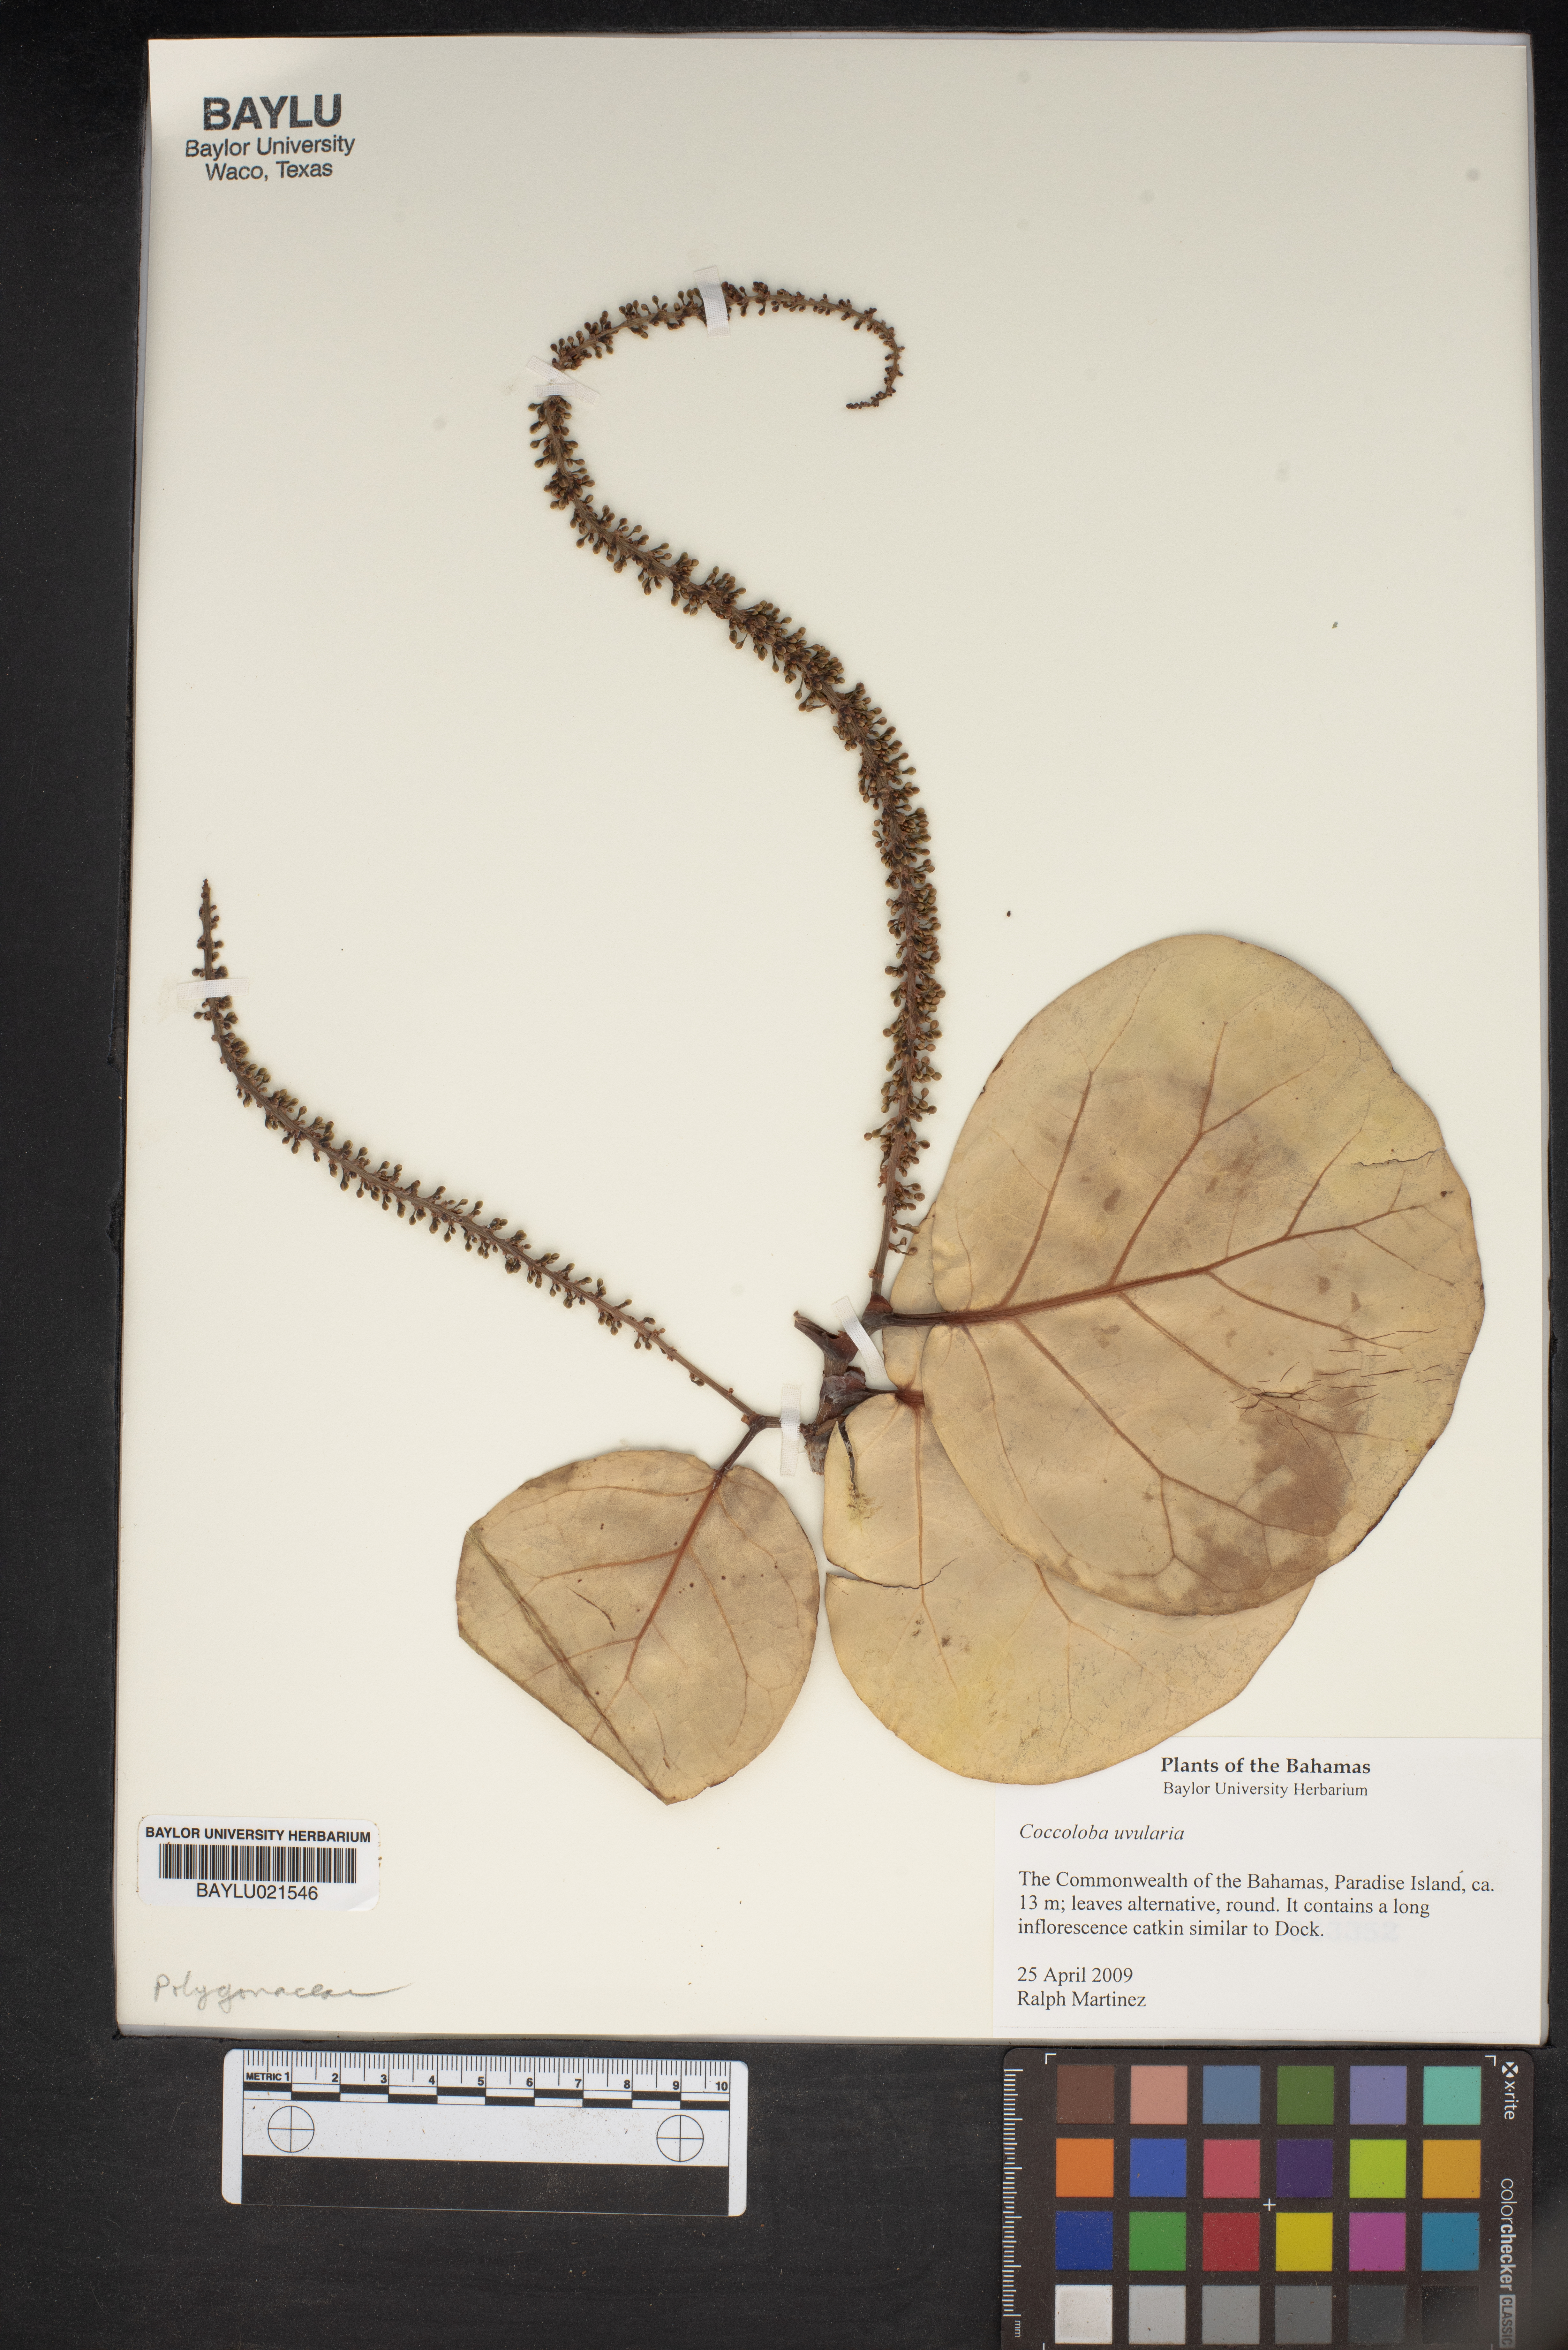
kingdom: Plantae
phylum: Tracheophyta
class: Magnoliopsida
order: Caryophyllales
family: Polygonaceae
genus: Coccoloba
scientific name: Coccoloba
